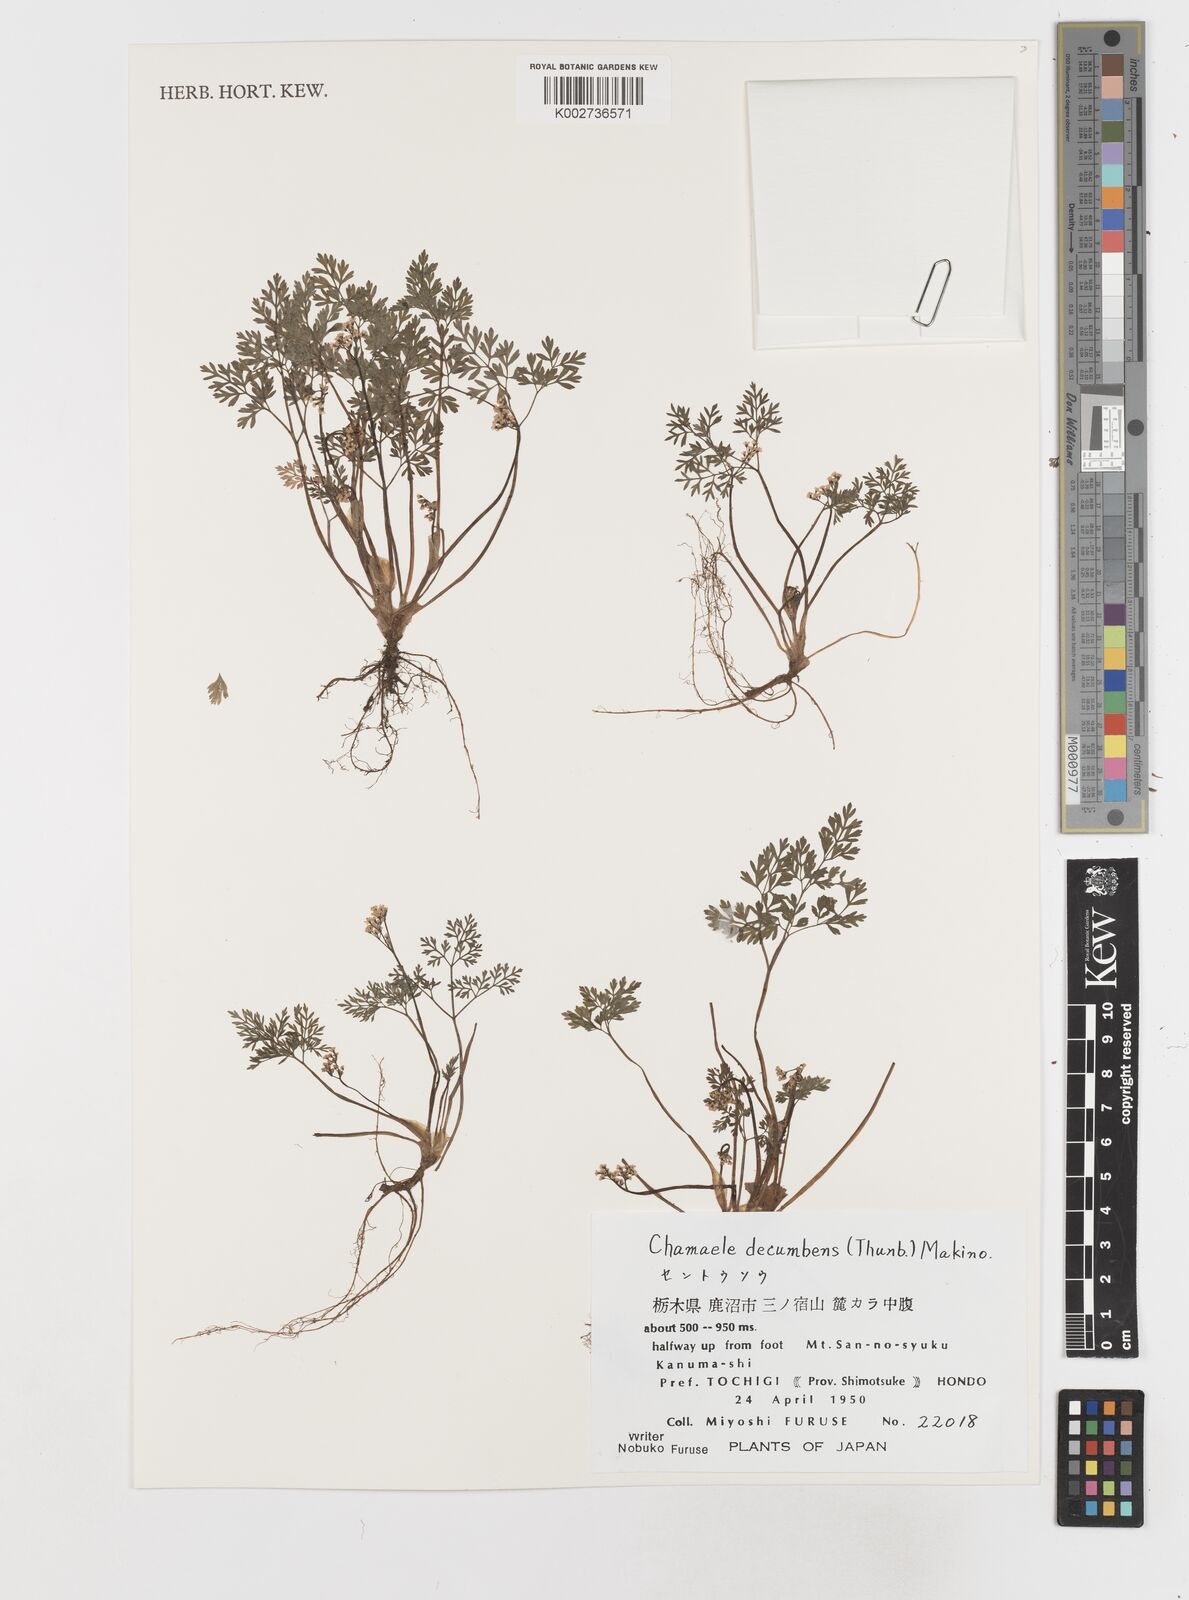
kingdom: Plantae
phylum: Tracheophyta
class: Magnoliopsida
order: Apiales
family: Apiaceae
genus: Aegopodium
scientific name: Aegopodium decumbens
